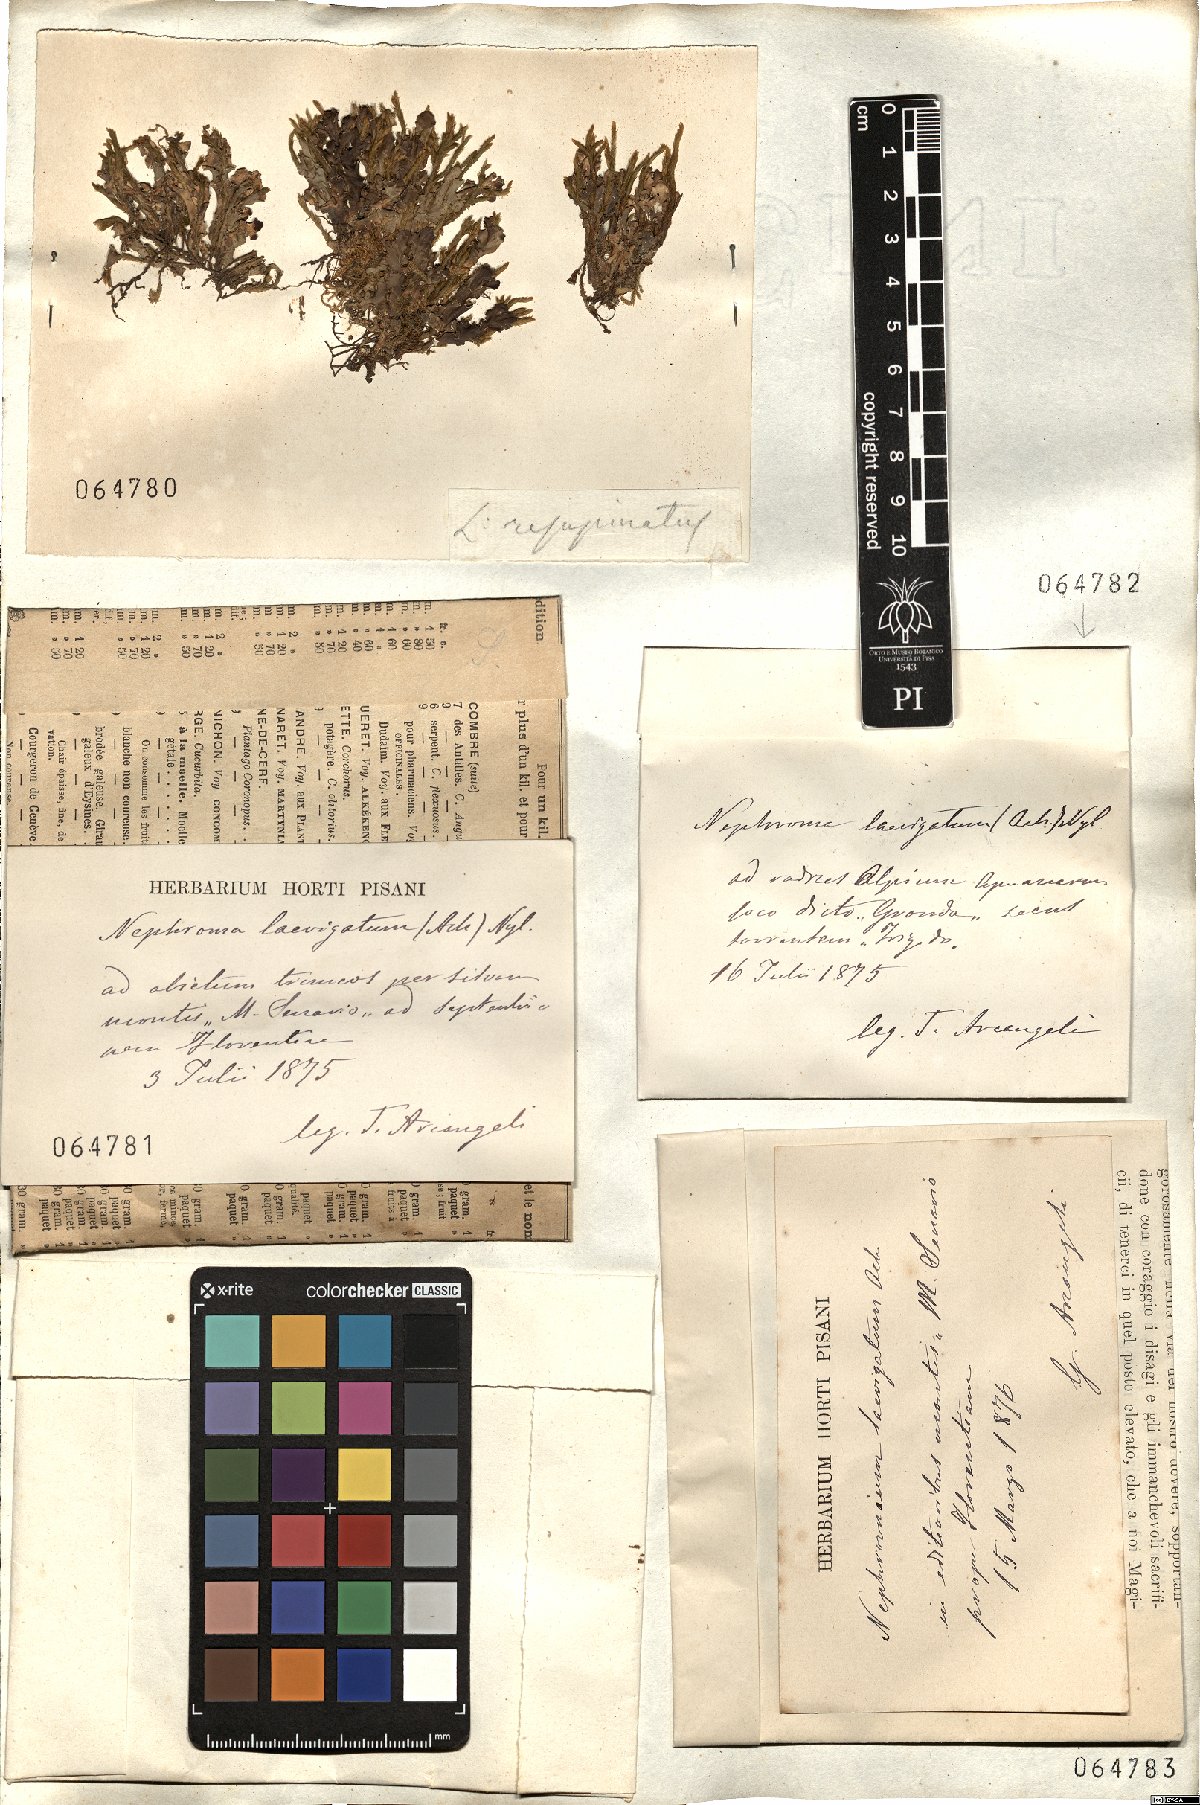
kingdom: Fungi
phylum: Ascomycota
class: Lecanoromycetes
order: Peltigerales
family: Nephromataceae
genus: Nephroma
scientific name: Nephroma resupinatum
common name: Pimpled kidney lichen
